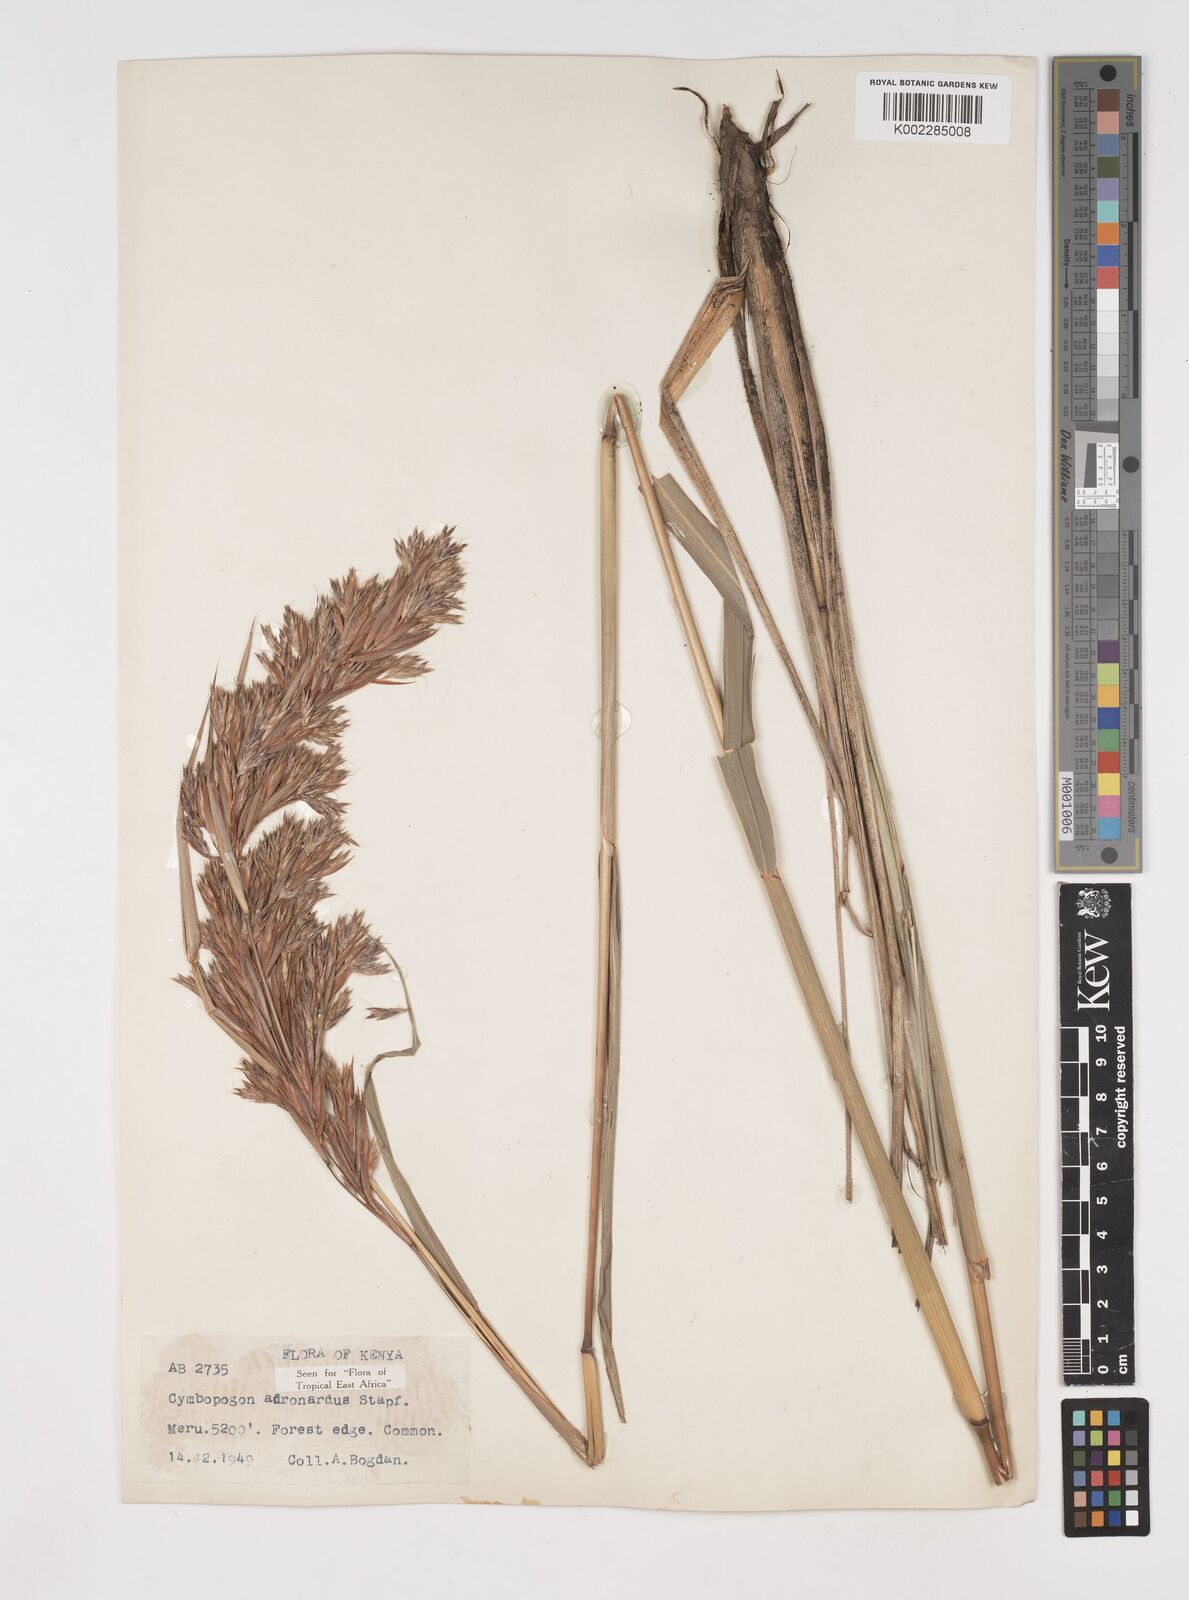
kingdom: Plantae
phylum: Tracheophyta
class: Liliopsida
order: Poales
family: Poaceae
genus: Cymbopogon
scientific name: Cymbopogon nardus
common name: Giant turpentine grass
